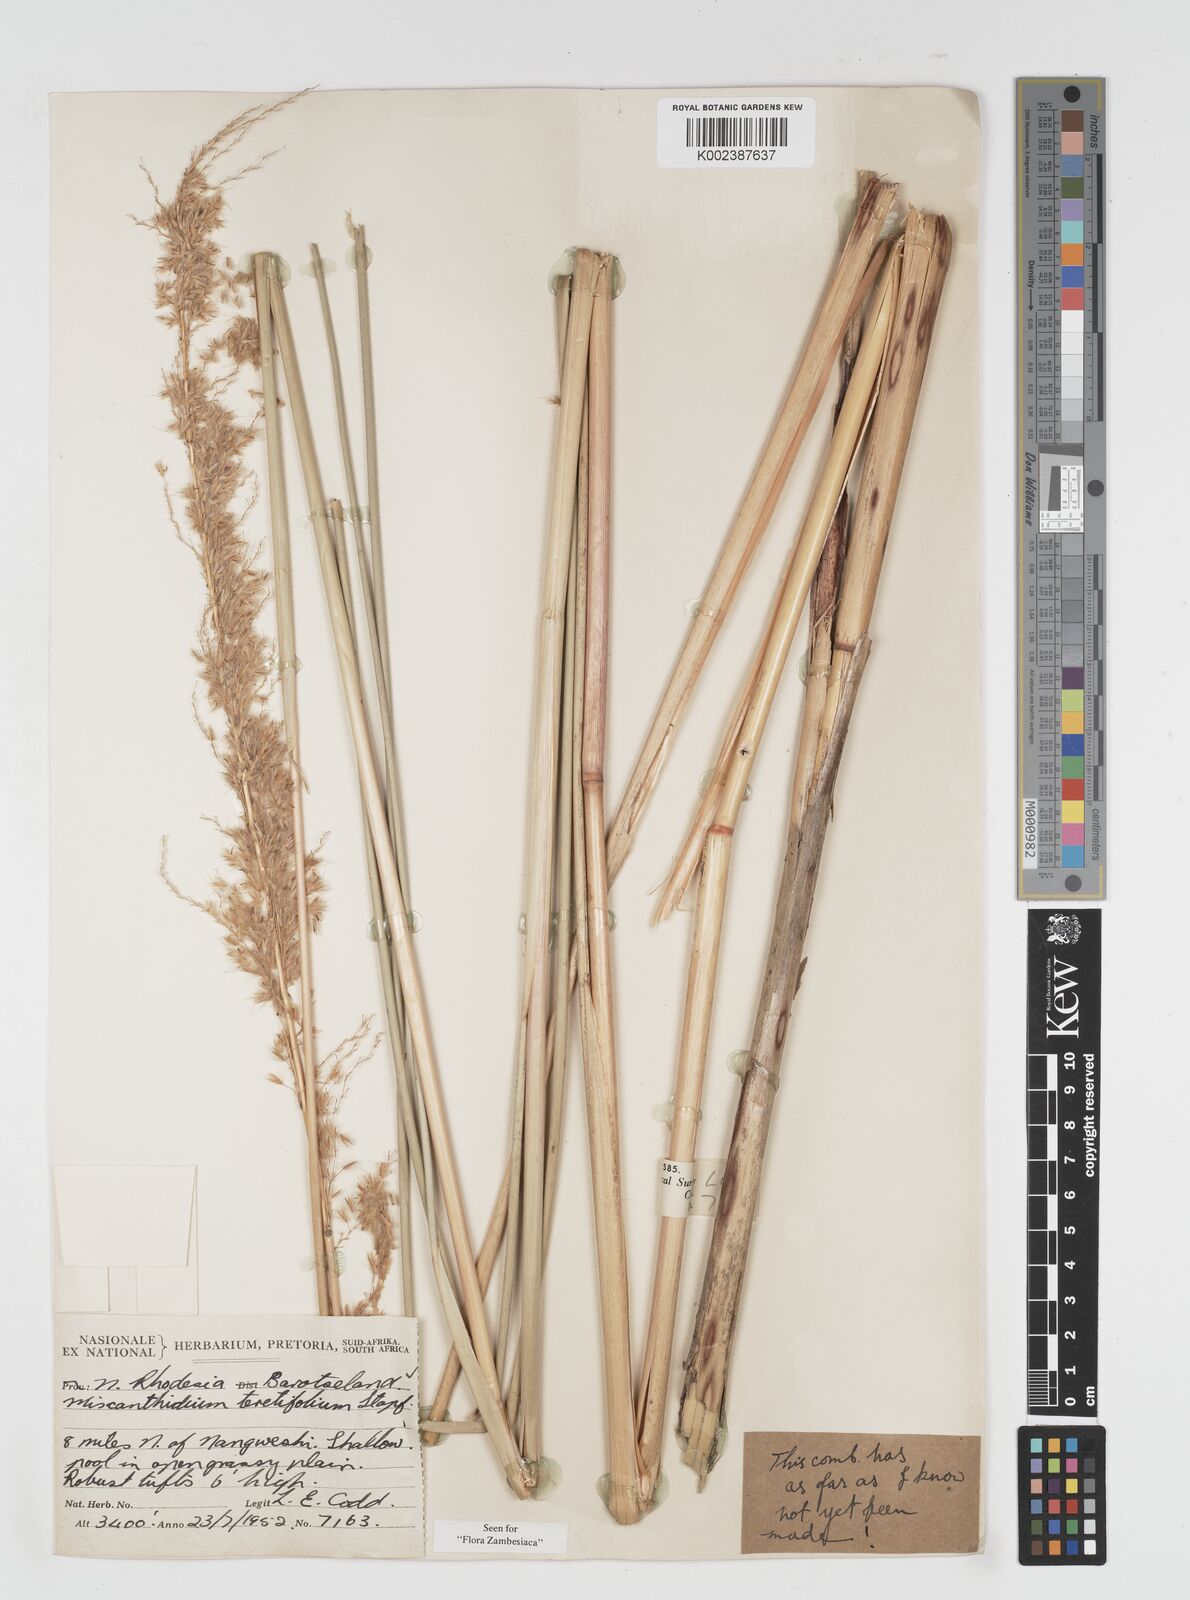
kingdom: Plantae
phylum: Tracheophyta
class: Liliopsida
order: Poales
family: Poaceae
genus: Miscanthidium
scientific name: Miscanthidium junceum
